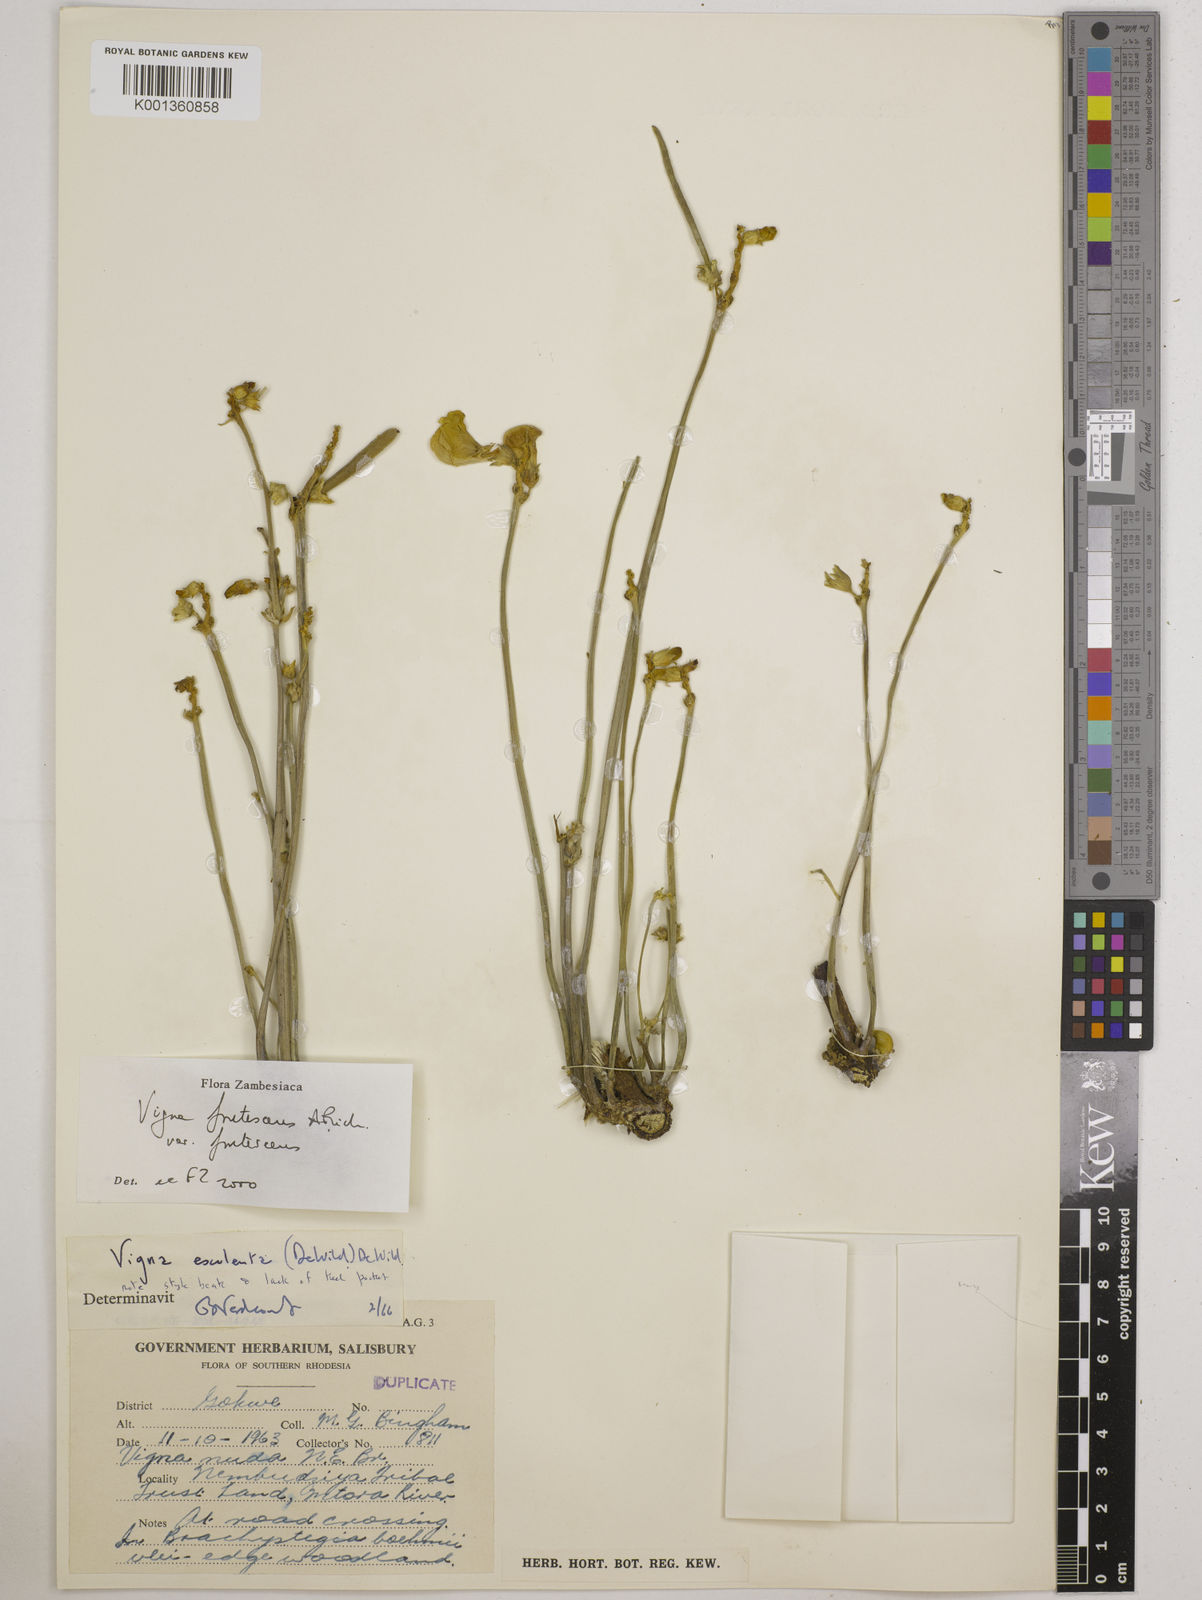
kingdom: Plantae
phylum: Tracheophyta
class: Magnoliopsida
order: Fabales
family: Fabaceae
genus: Vigna
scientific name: Vigna
